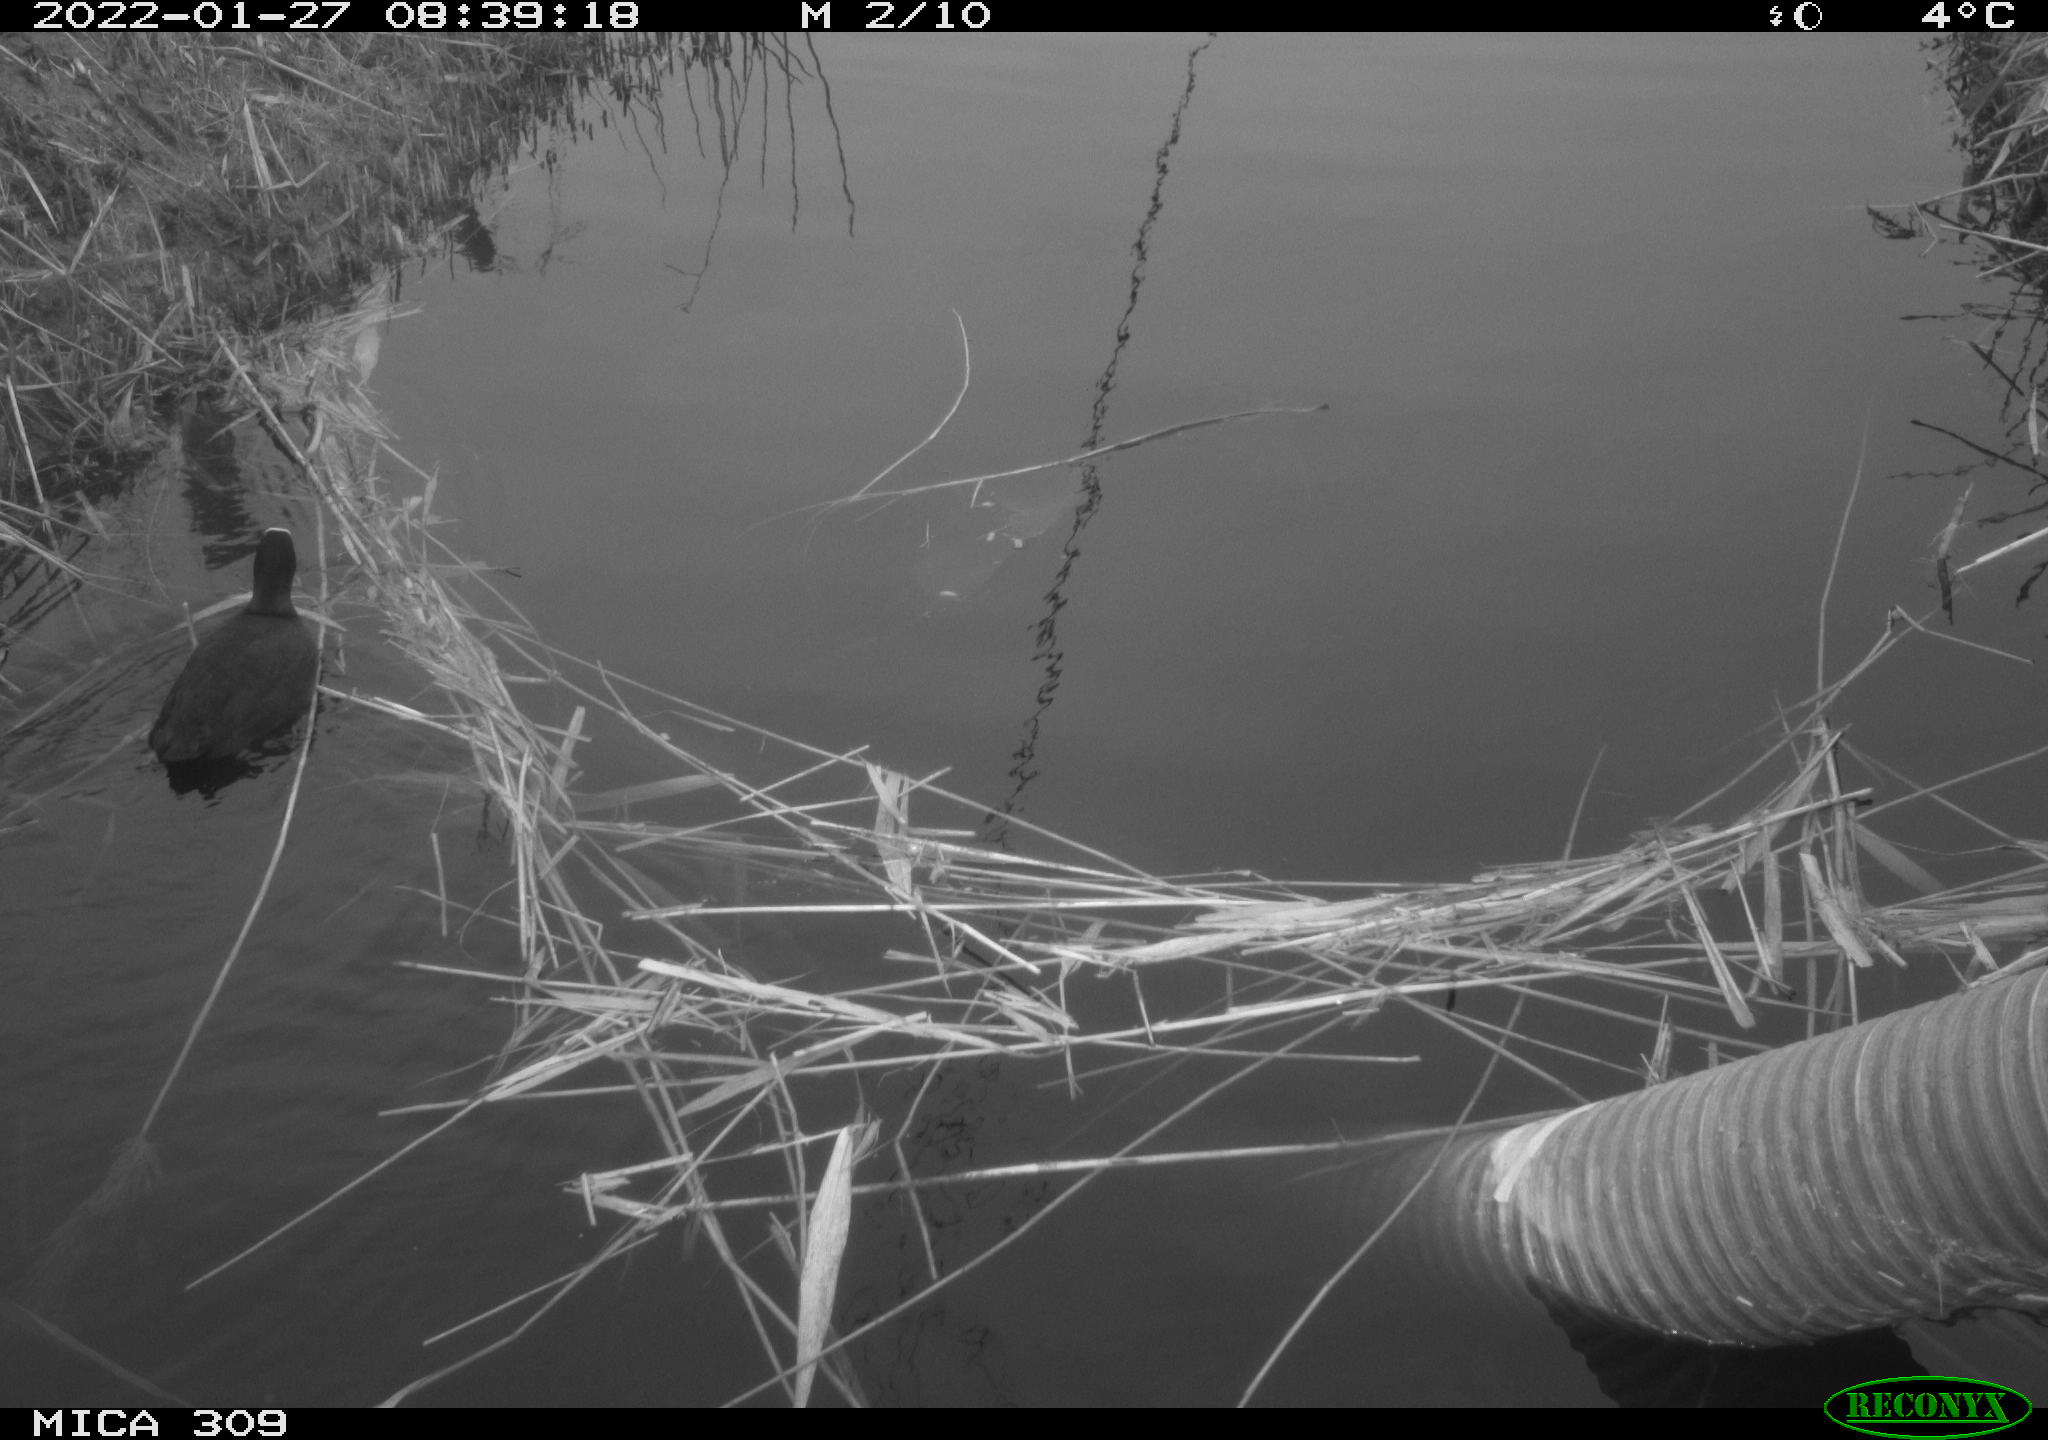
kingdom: Animalia
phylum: Chordata
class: Aves
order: Gruiformes
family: Rallidae
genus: Fulica
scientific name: Fulica atra
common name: Eurasian coot
